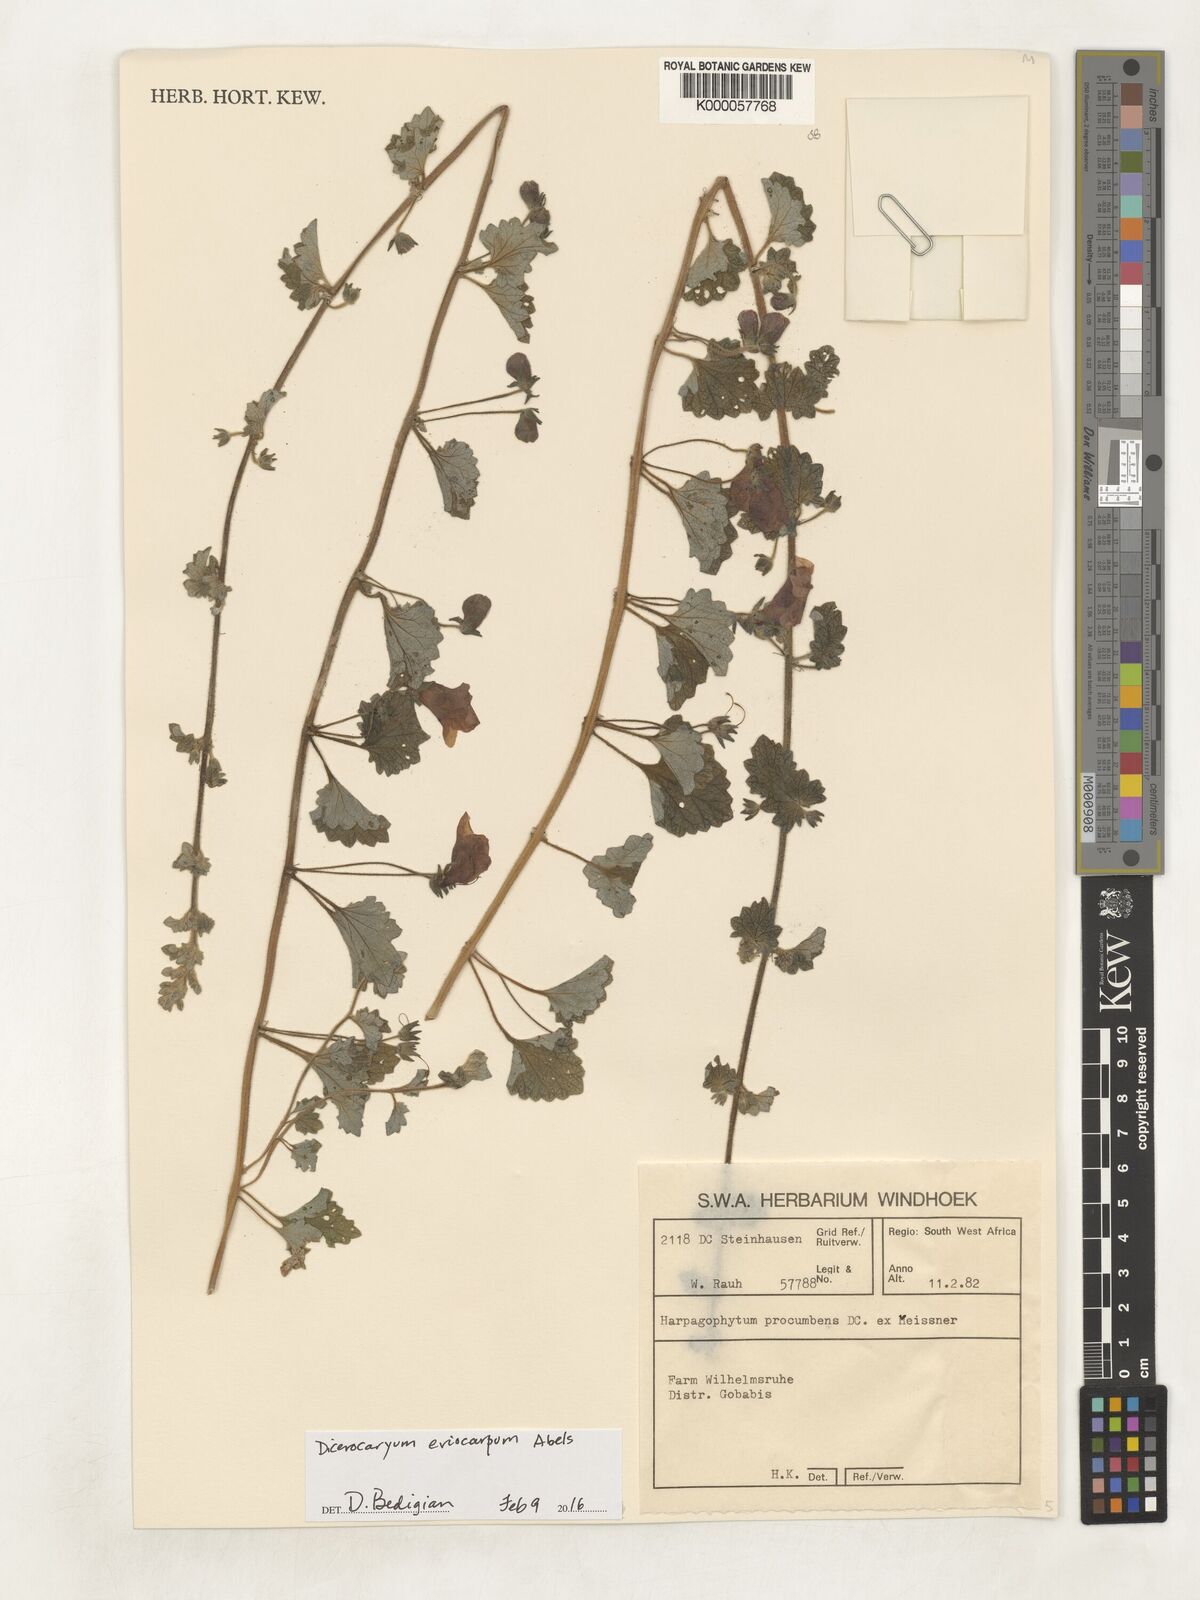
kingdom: Plantae
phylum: Tracheophyta
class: Magnoliopsida
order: Lamiales
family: Pedaliaceae
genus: Harpagophytum
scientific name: Harpagophytum procumbens
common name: Grappleplant
